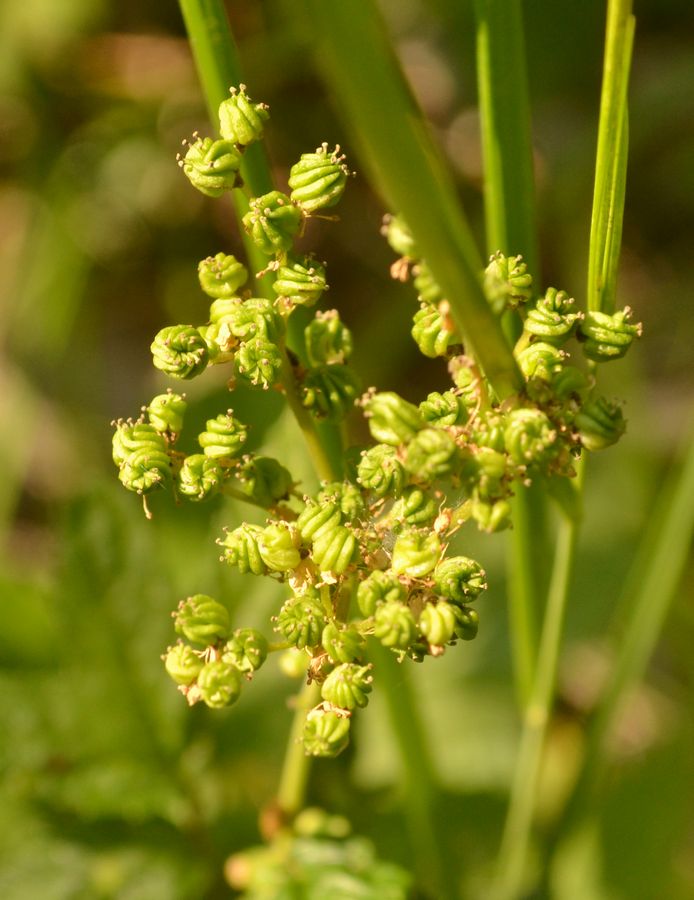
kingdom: Plantae
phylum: Tracheophyta
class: Magnoliopsida
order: Rosales
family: Rosaceae
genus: Filipendula
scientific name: Filipendula ulmaria
